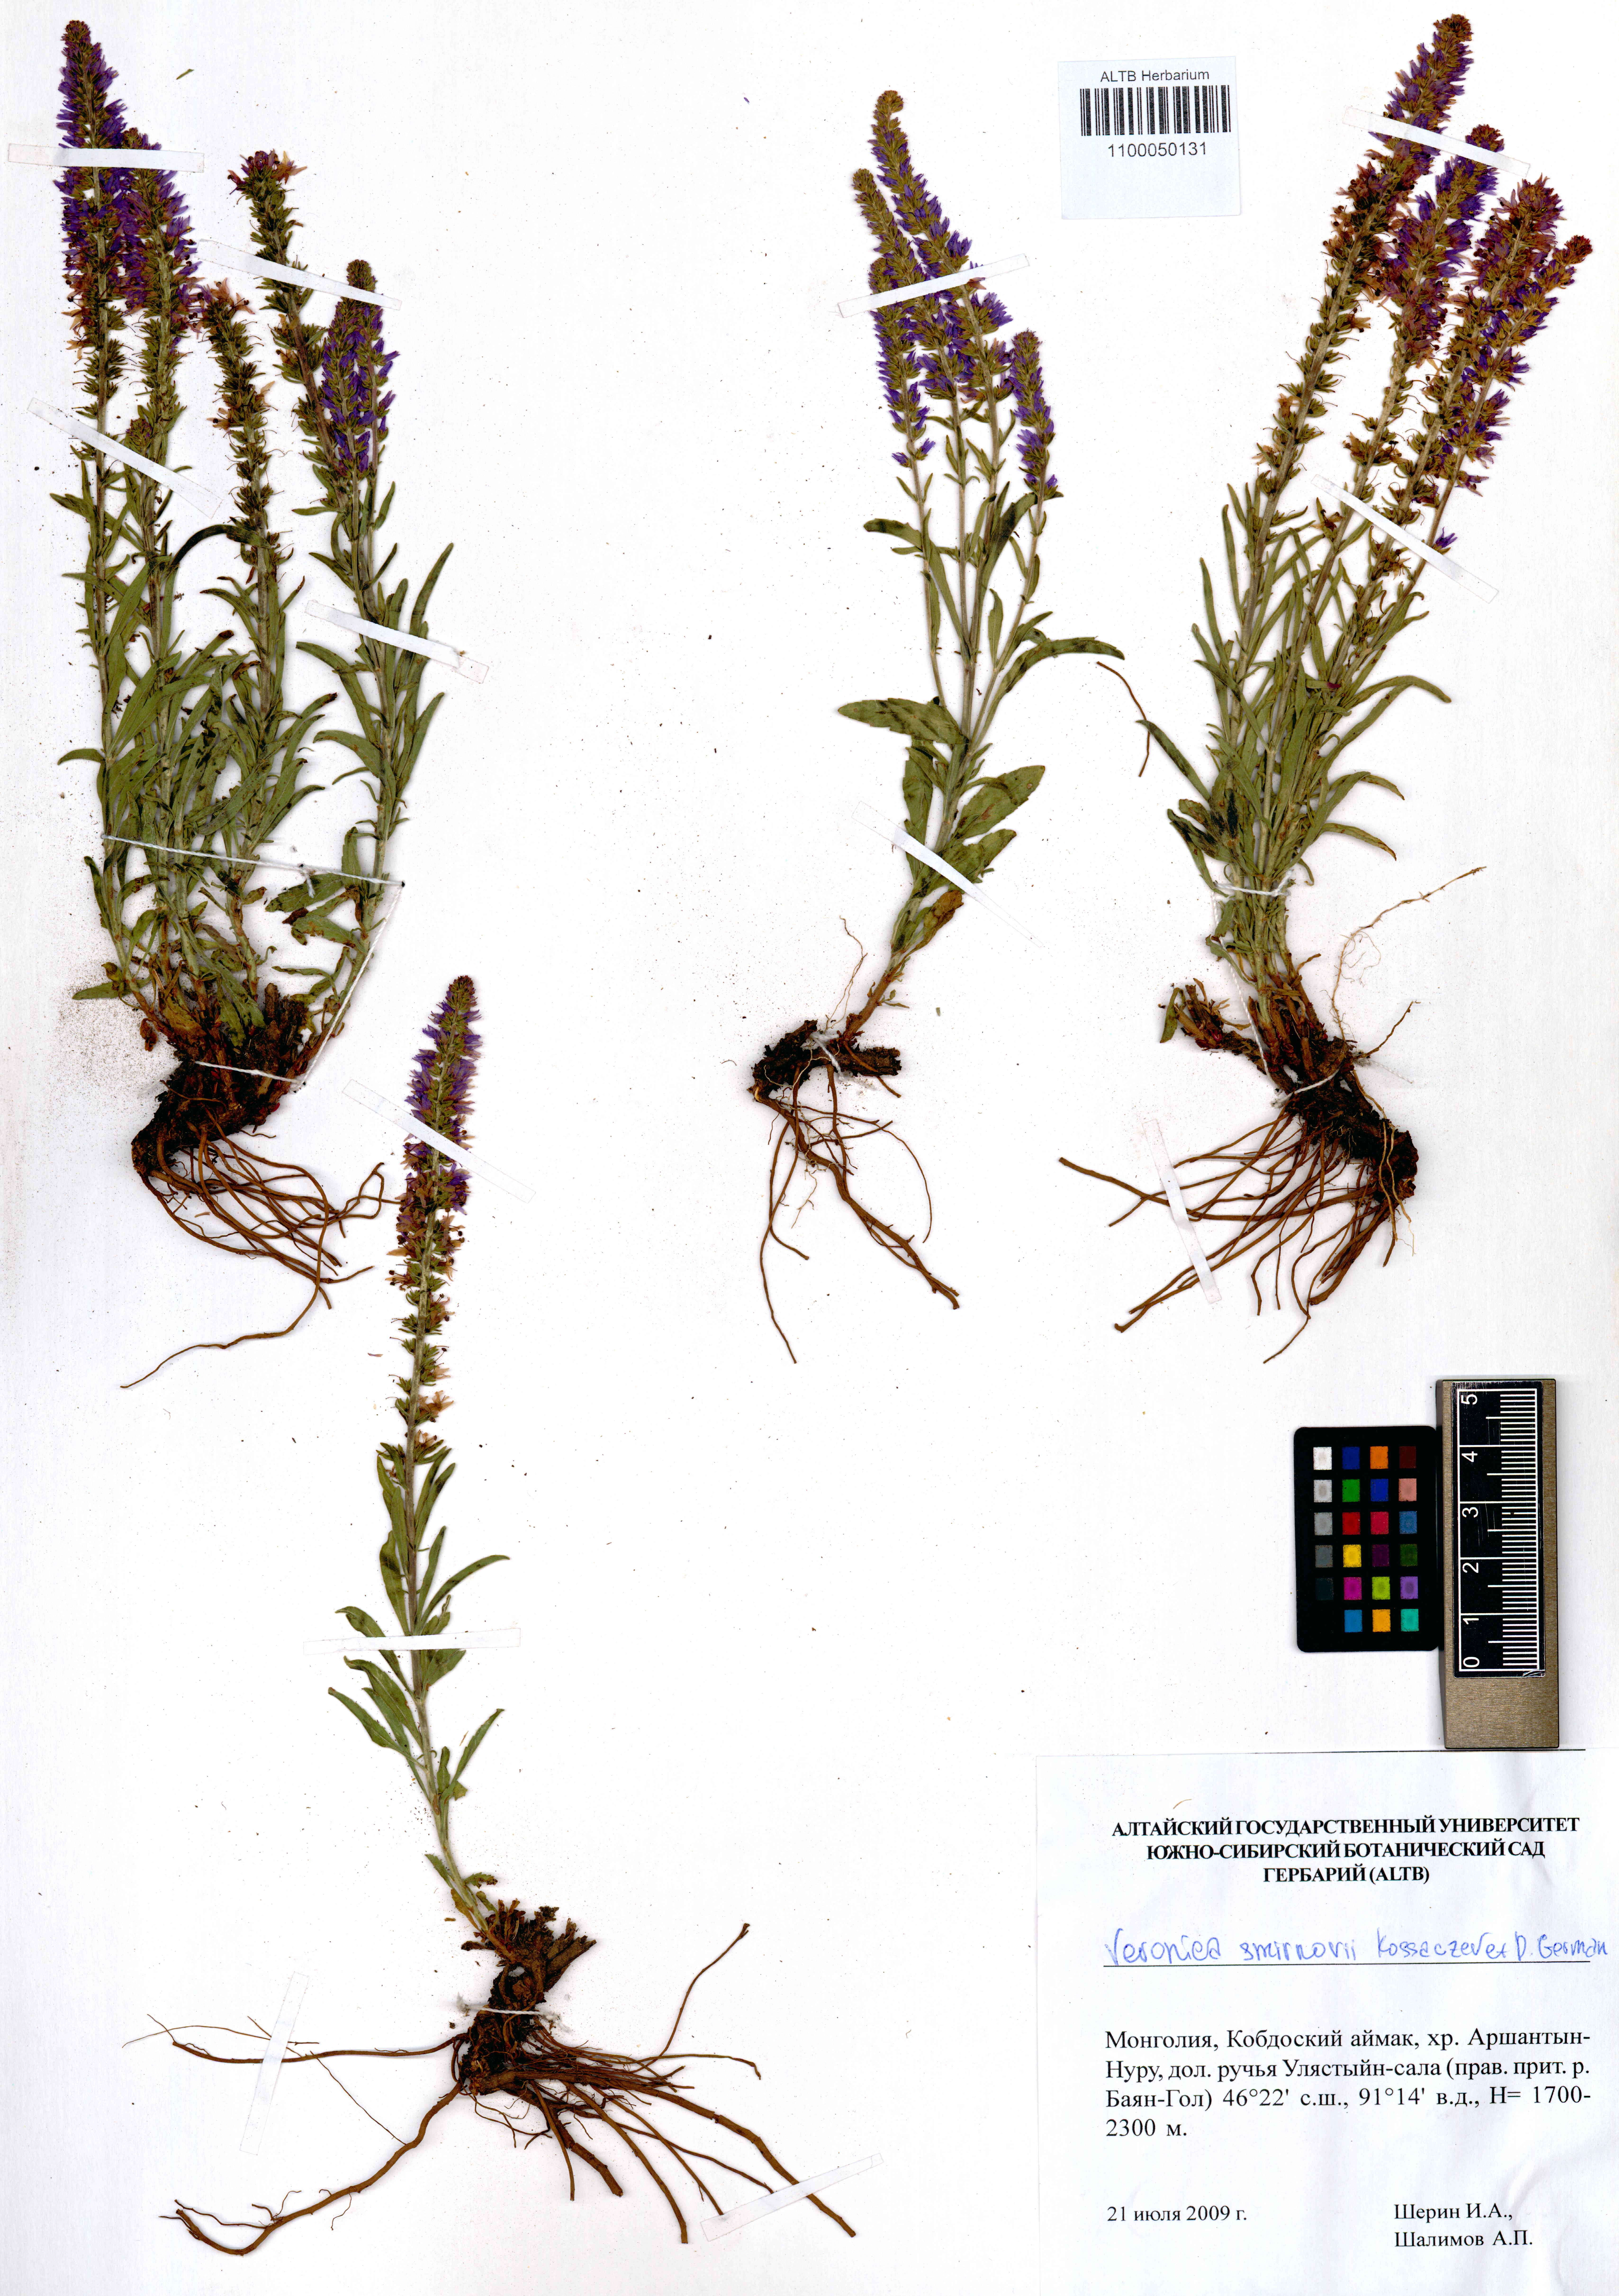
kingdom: Plantae
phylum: Tracheophyta
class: Magnoliopsida
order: Lamiales
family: Plantaginaceae
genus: Veronica
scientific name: Veronica smirnovii
